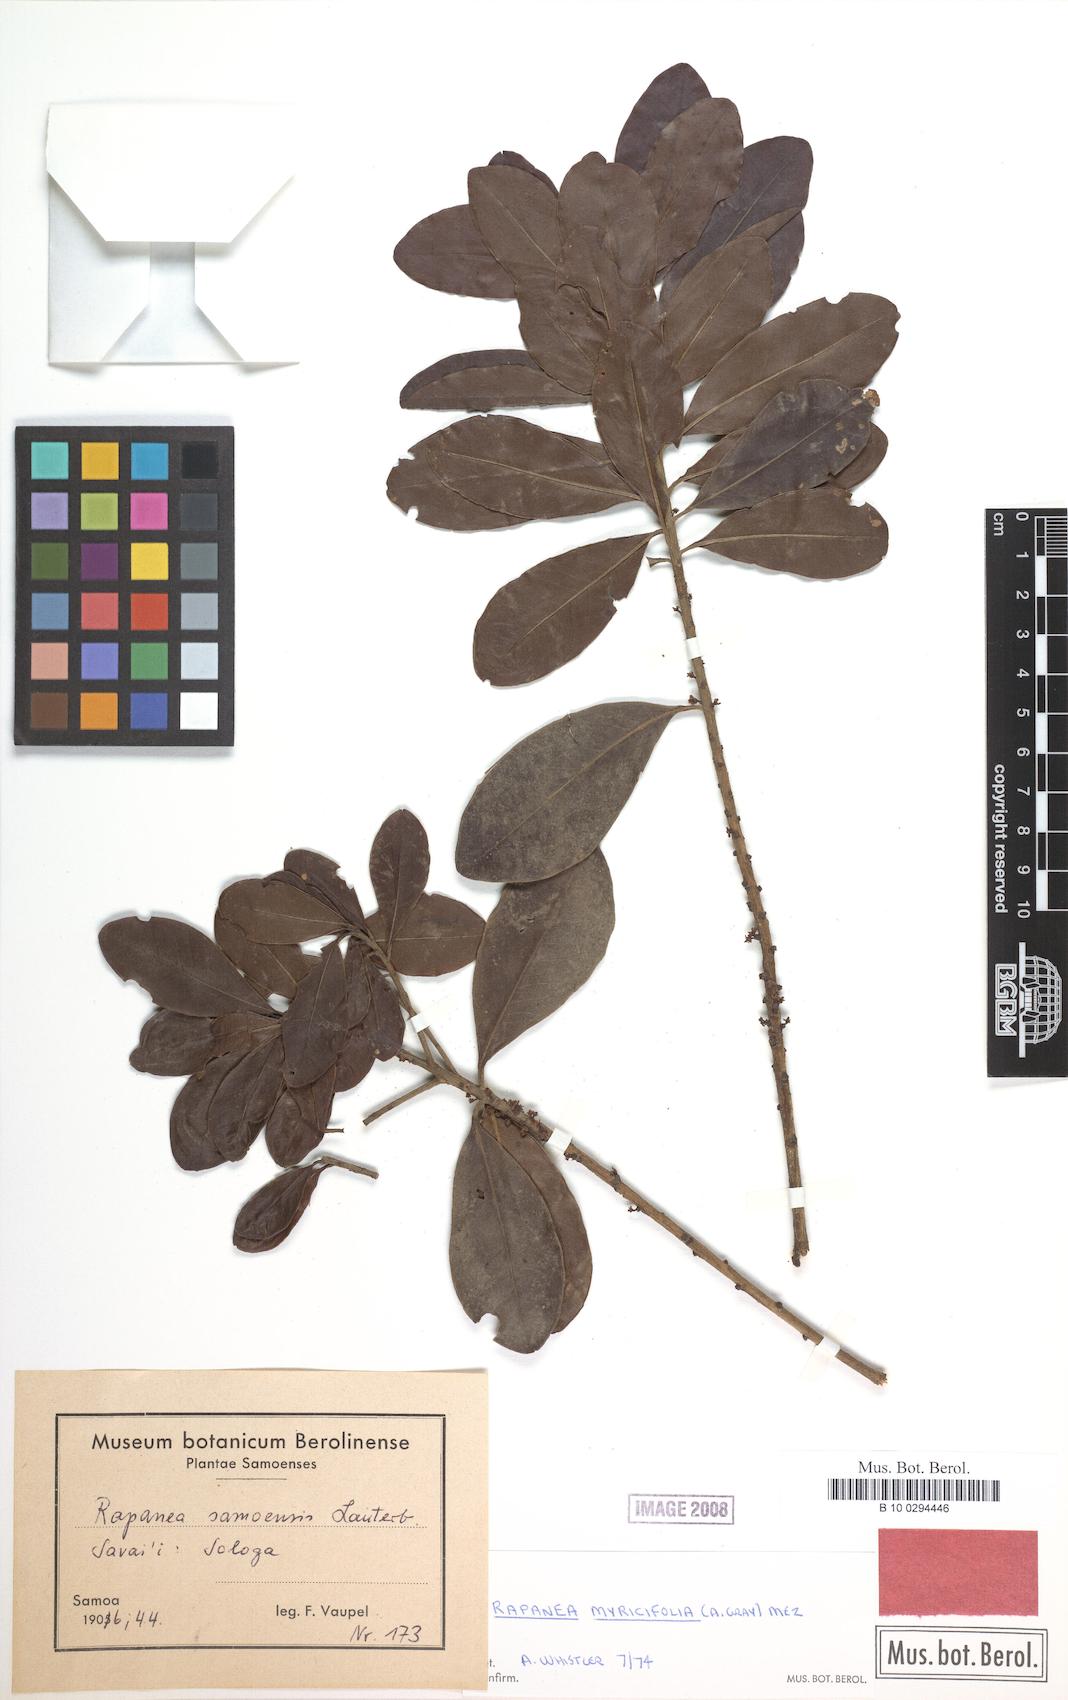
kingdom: Plantae
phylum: Tracheophyta
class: Magnoliopsida
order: Ericales
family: Primulaceae
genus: Myrsine
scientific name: Myrsine myricifolia
